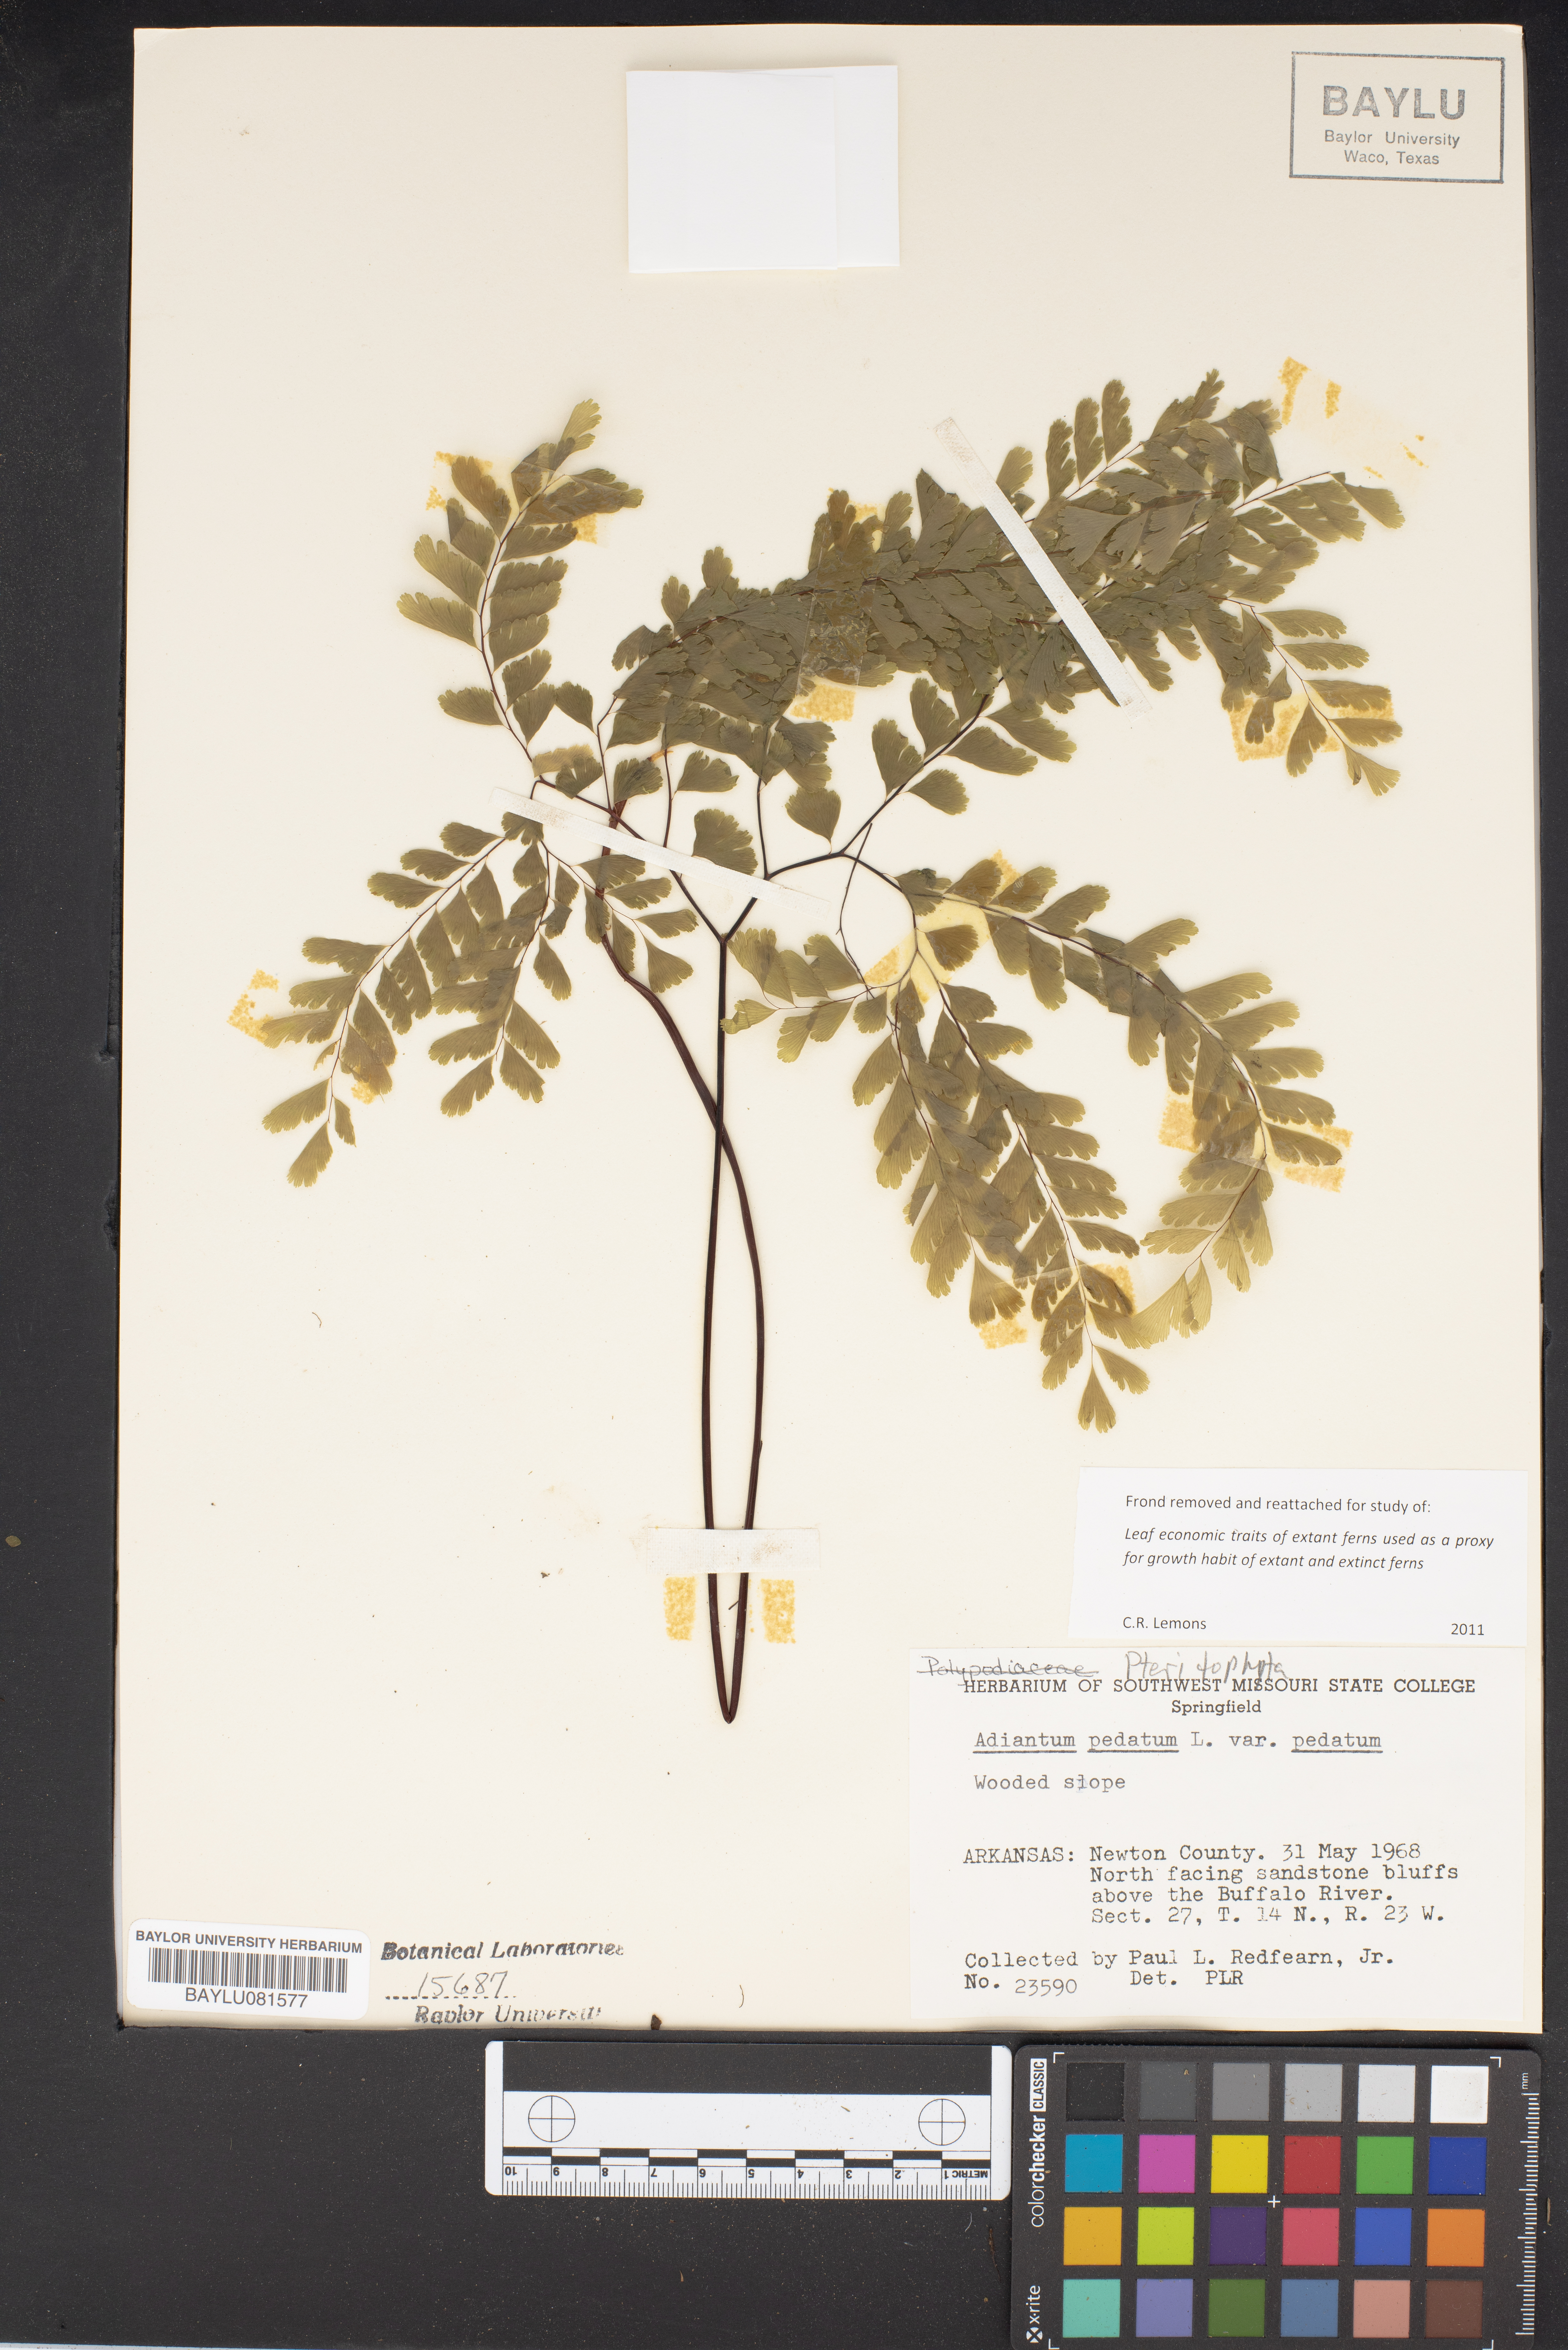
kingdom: Plantae
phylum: Tracheophyta
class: Polypodiopsida
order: Polypodiales
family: Pteridaceae
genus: Adiantum
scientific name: Adiantum pedatum
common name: Five-finger fern
